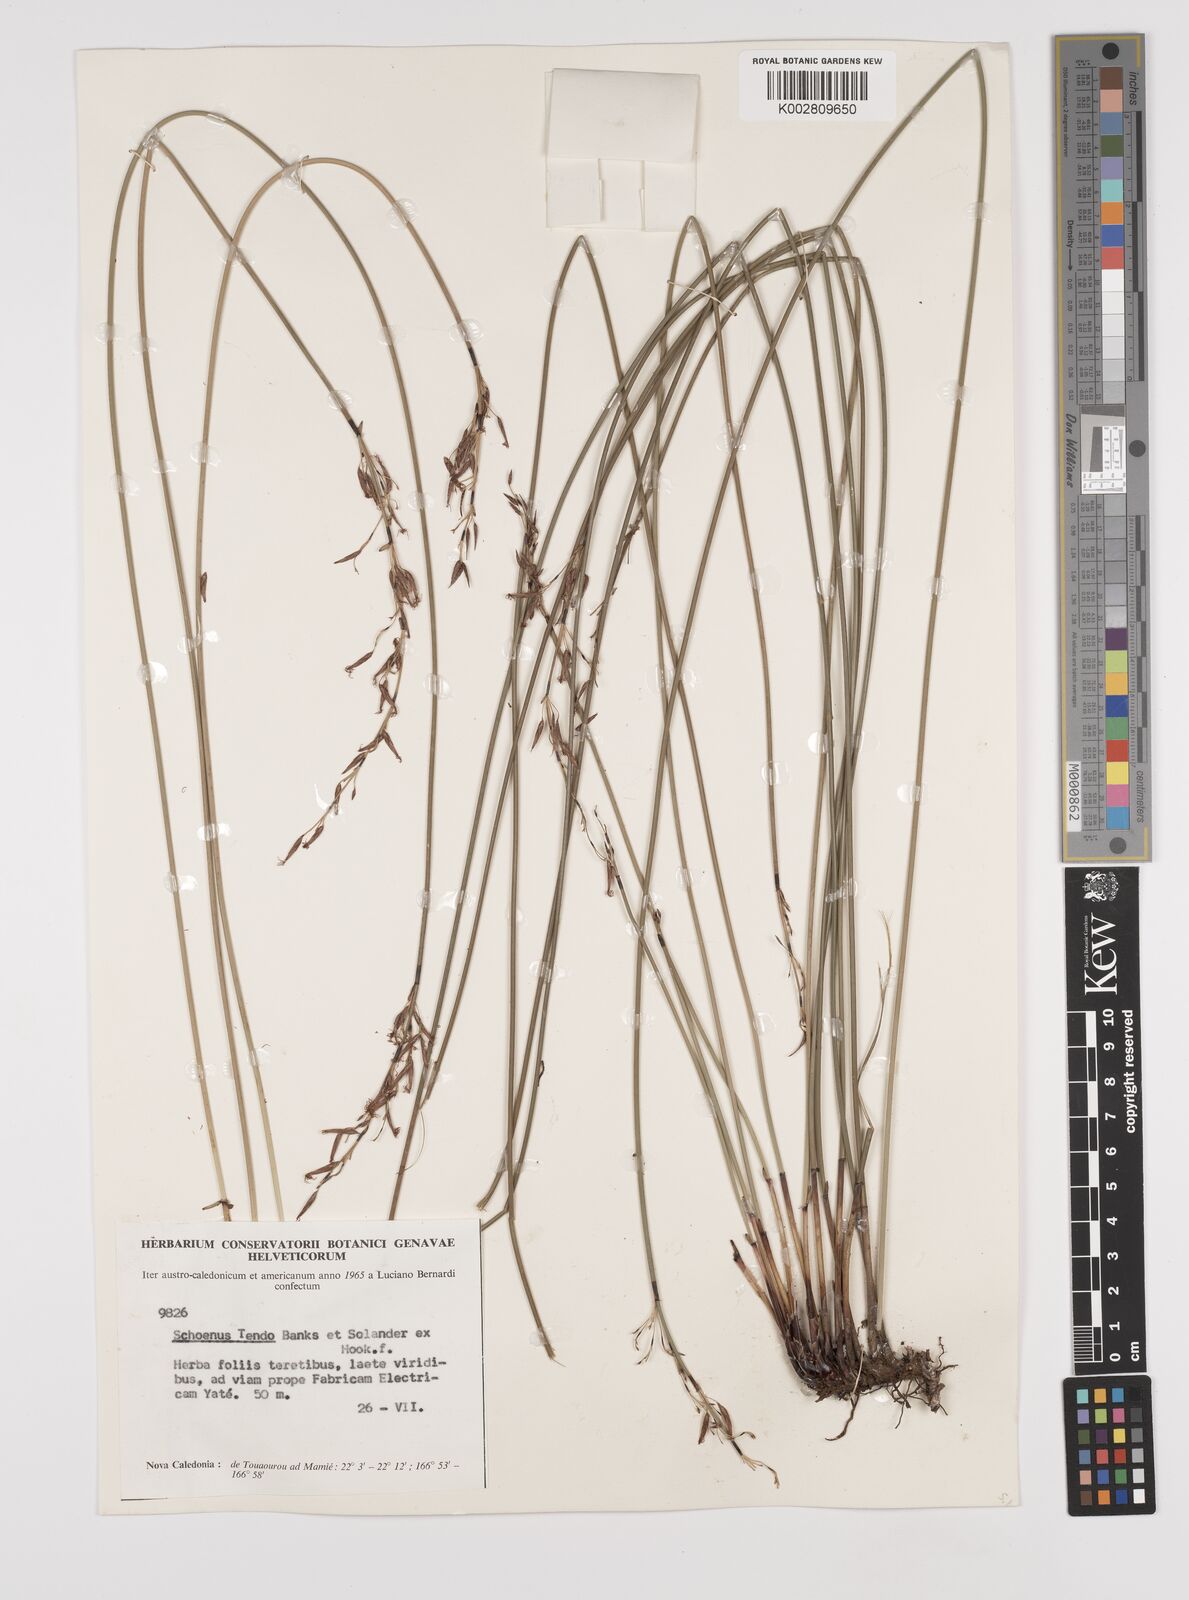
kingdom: Plantae
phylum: Tracheophyta
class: Liliopsida
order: Poales
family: Cyperaceae
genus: Schoenus
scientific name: Schoenus tendo
